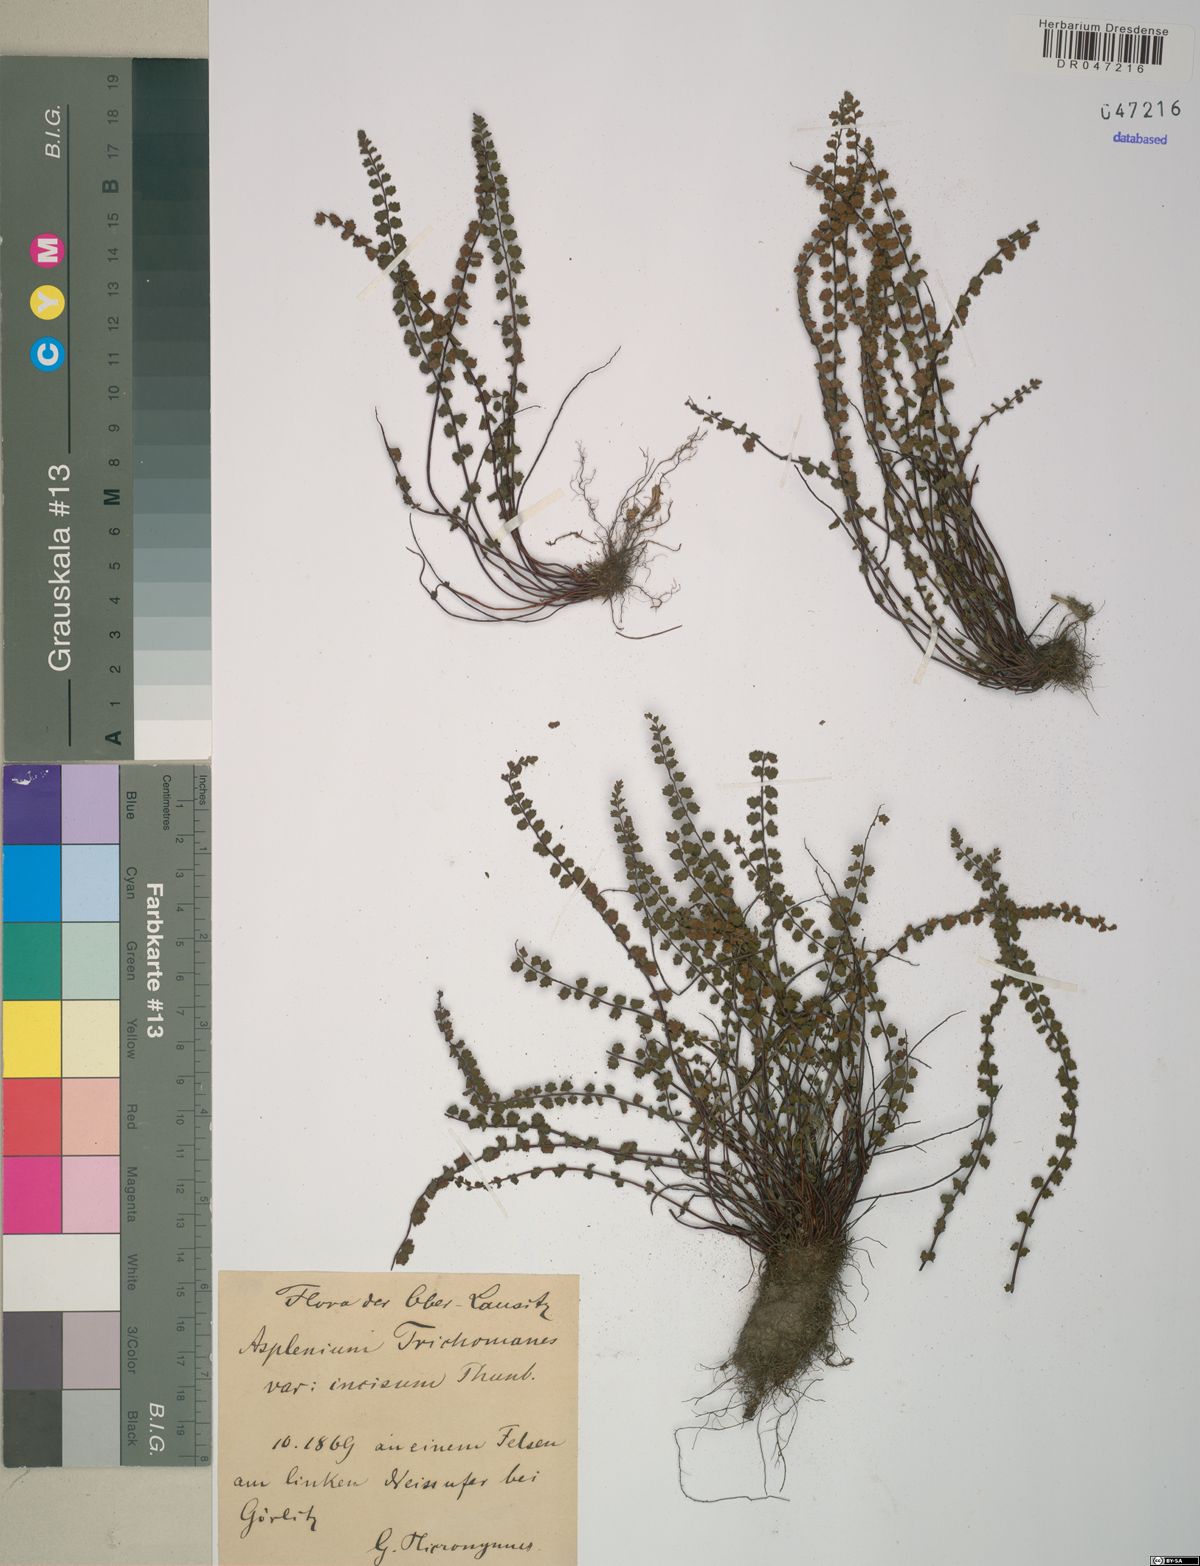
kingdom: Plantae
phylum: Tracheophyta
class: Polypodiopsida
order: Polypodiales
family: Aspleniaceae
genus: Asplenium
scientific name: Asplenium trichomanes
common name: Maidenhair spleenwort
